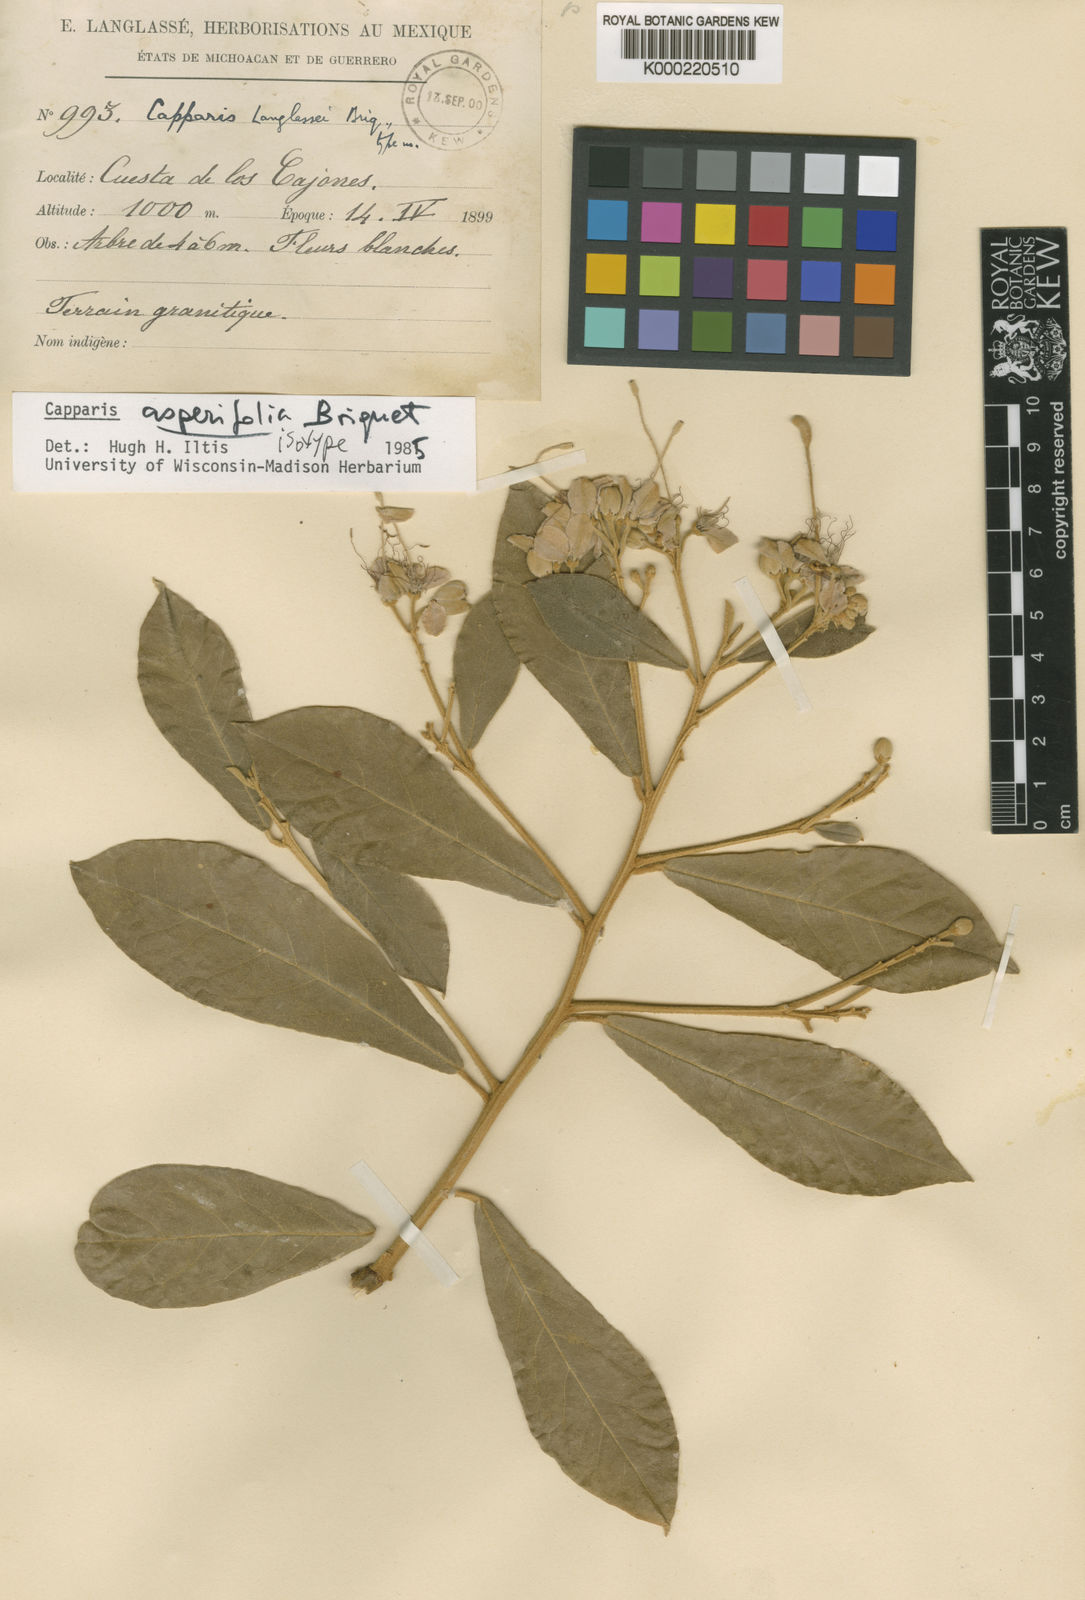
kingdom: Plantae
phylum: Tracheophyta
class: Magnoliopsida
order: Brassicales
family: Capparaceae
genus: Quadrella
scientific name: Quadrella asperifolia
